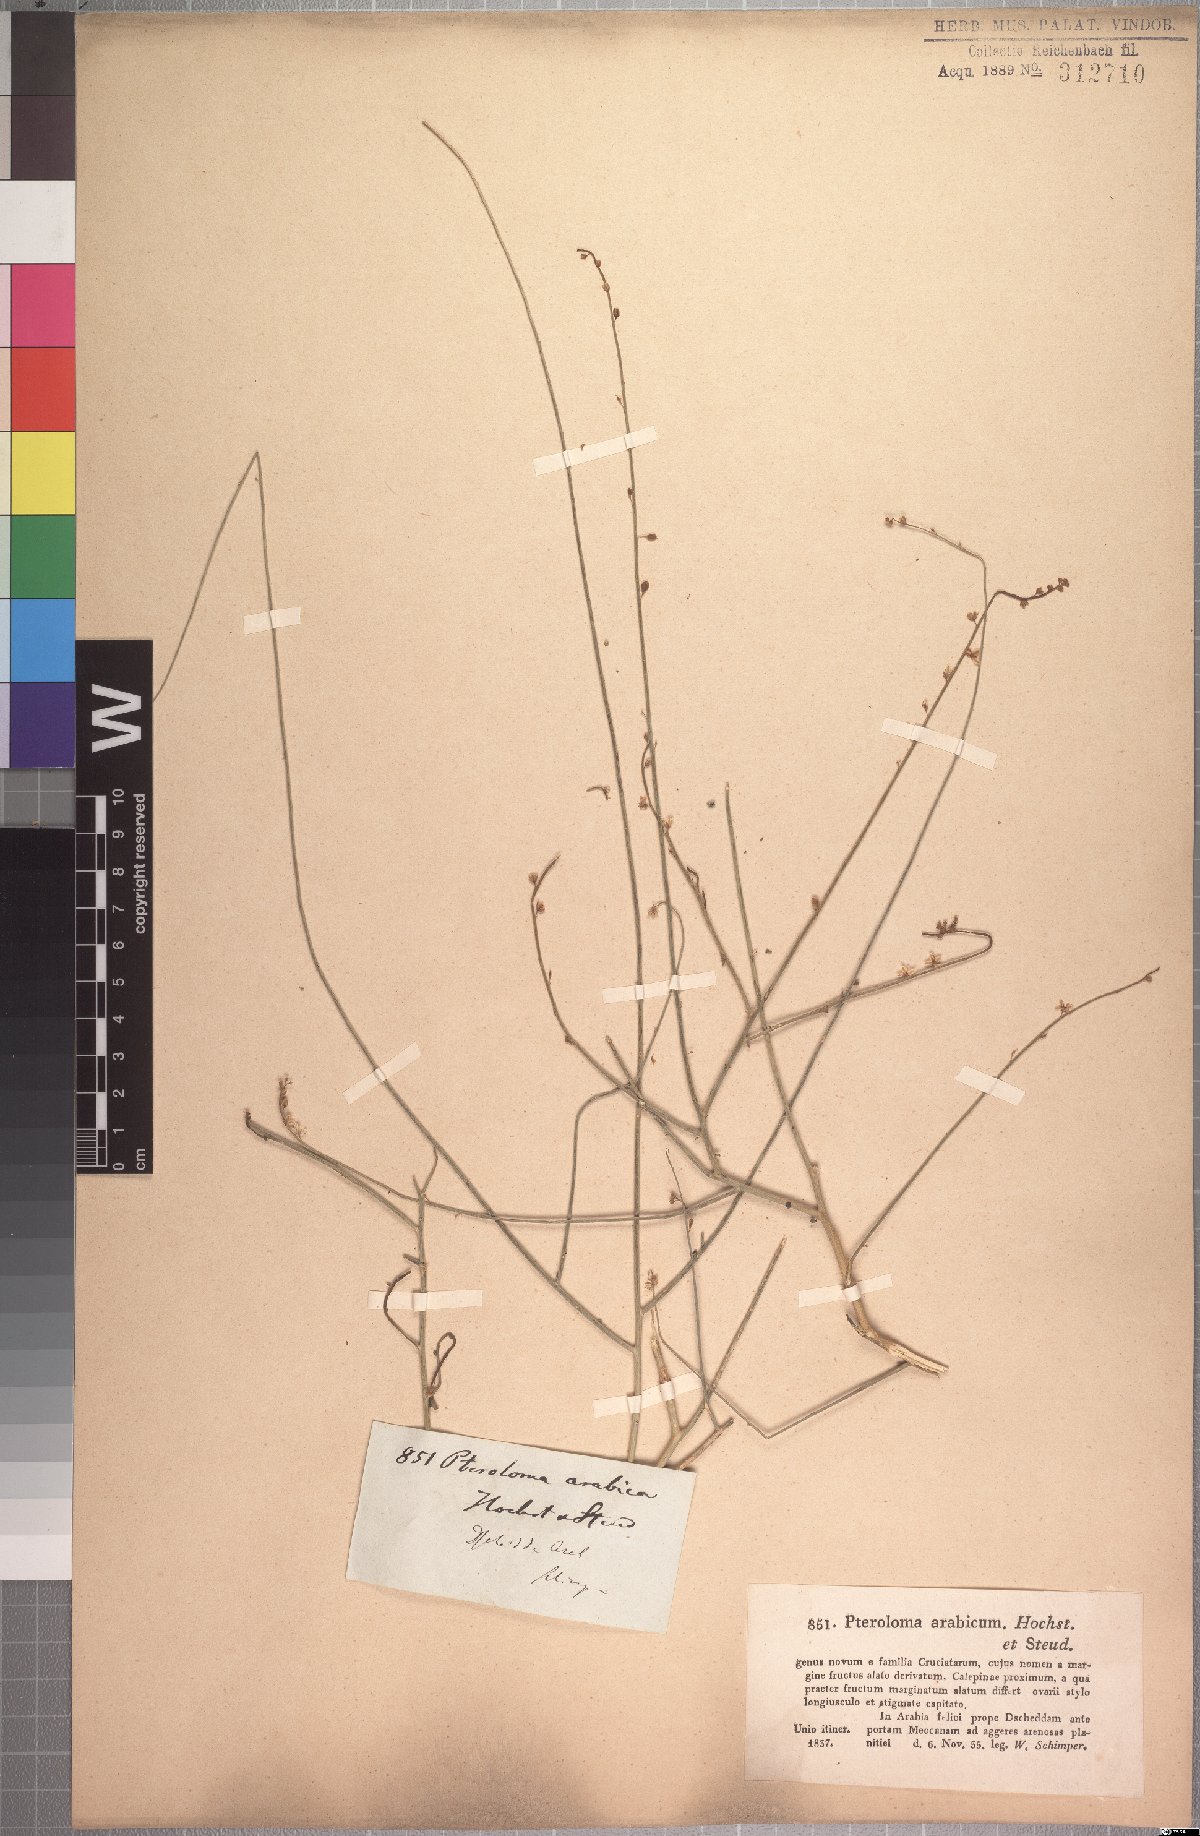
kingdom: Plantae
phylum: Tracheophyta
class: Magnoliopsida
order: Brassicales
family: Cleomaceae
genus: Dipterygium
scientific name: Dipterygium glaucum
